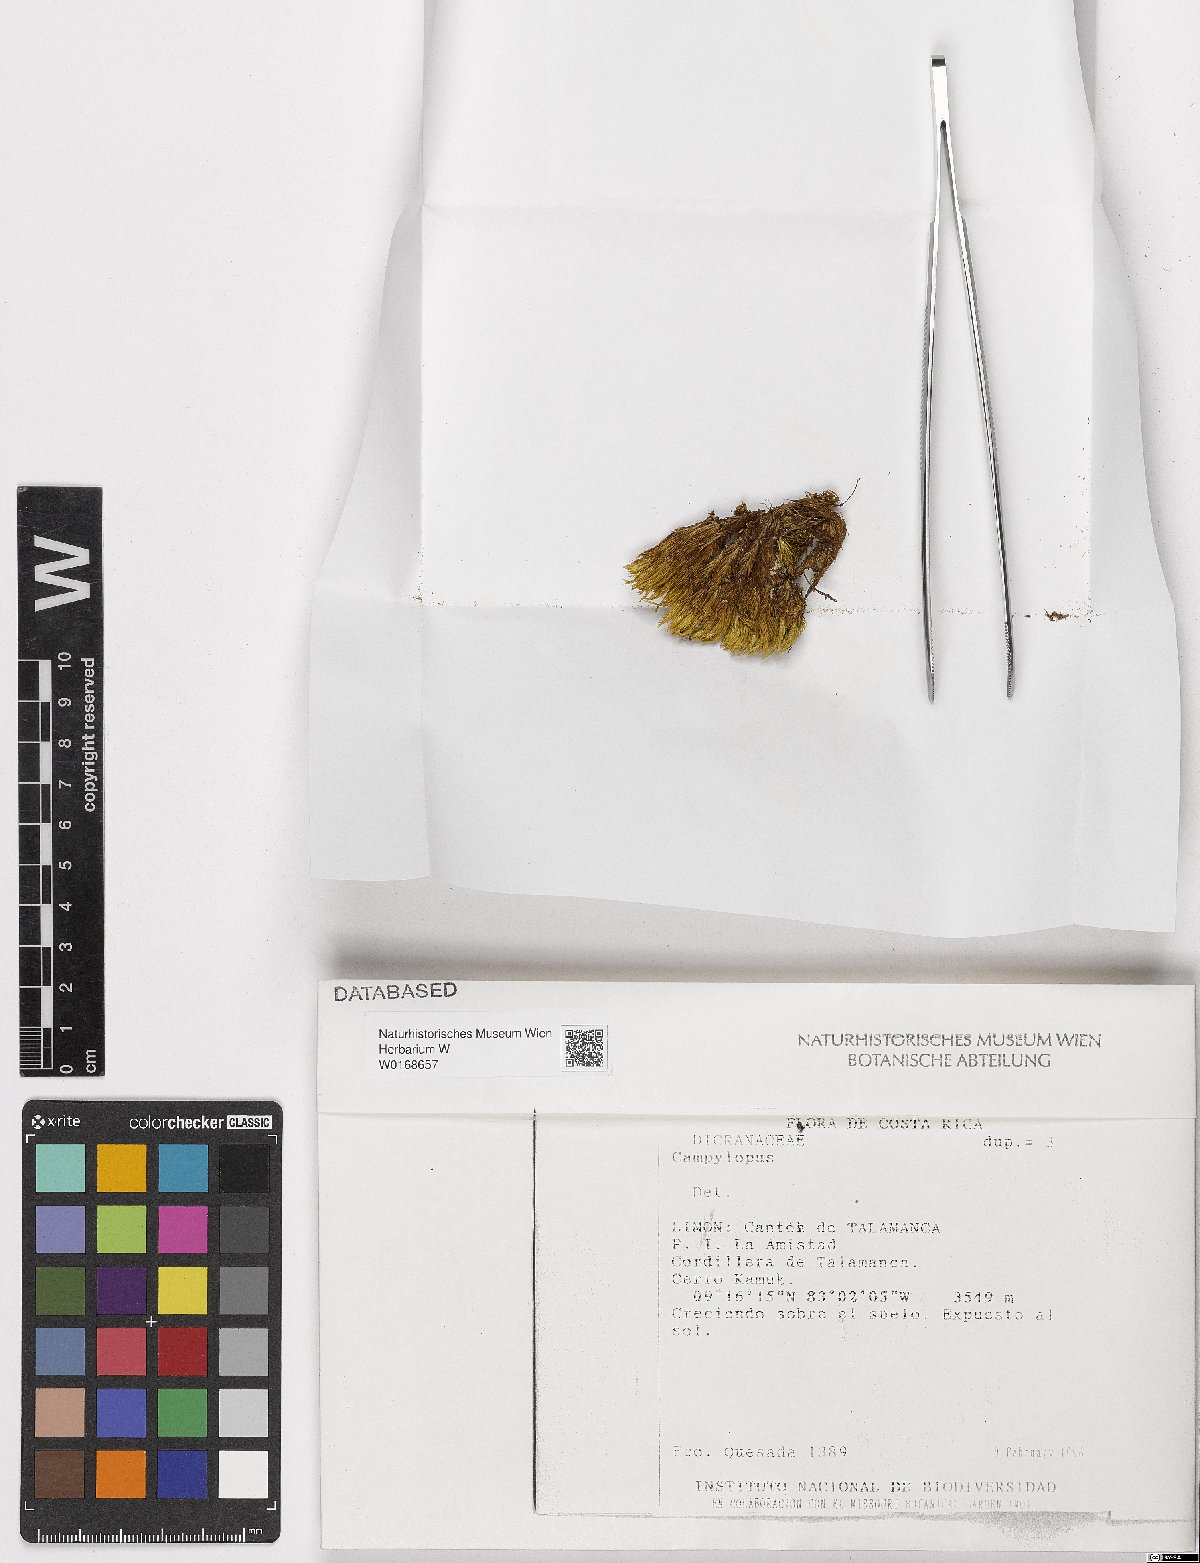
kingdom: Plantae
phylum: Bryophyta
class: Bryopsida
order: Dicranales
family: Leucobryaceae
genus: Campylopus
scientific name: Campylopus
